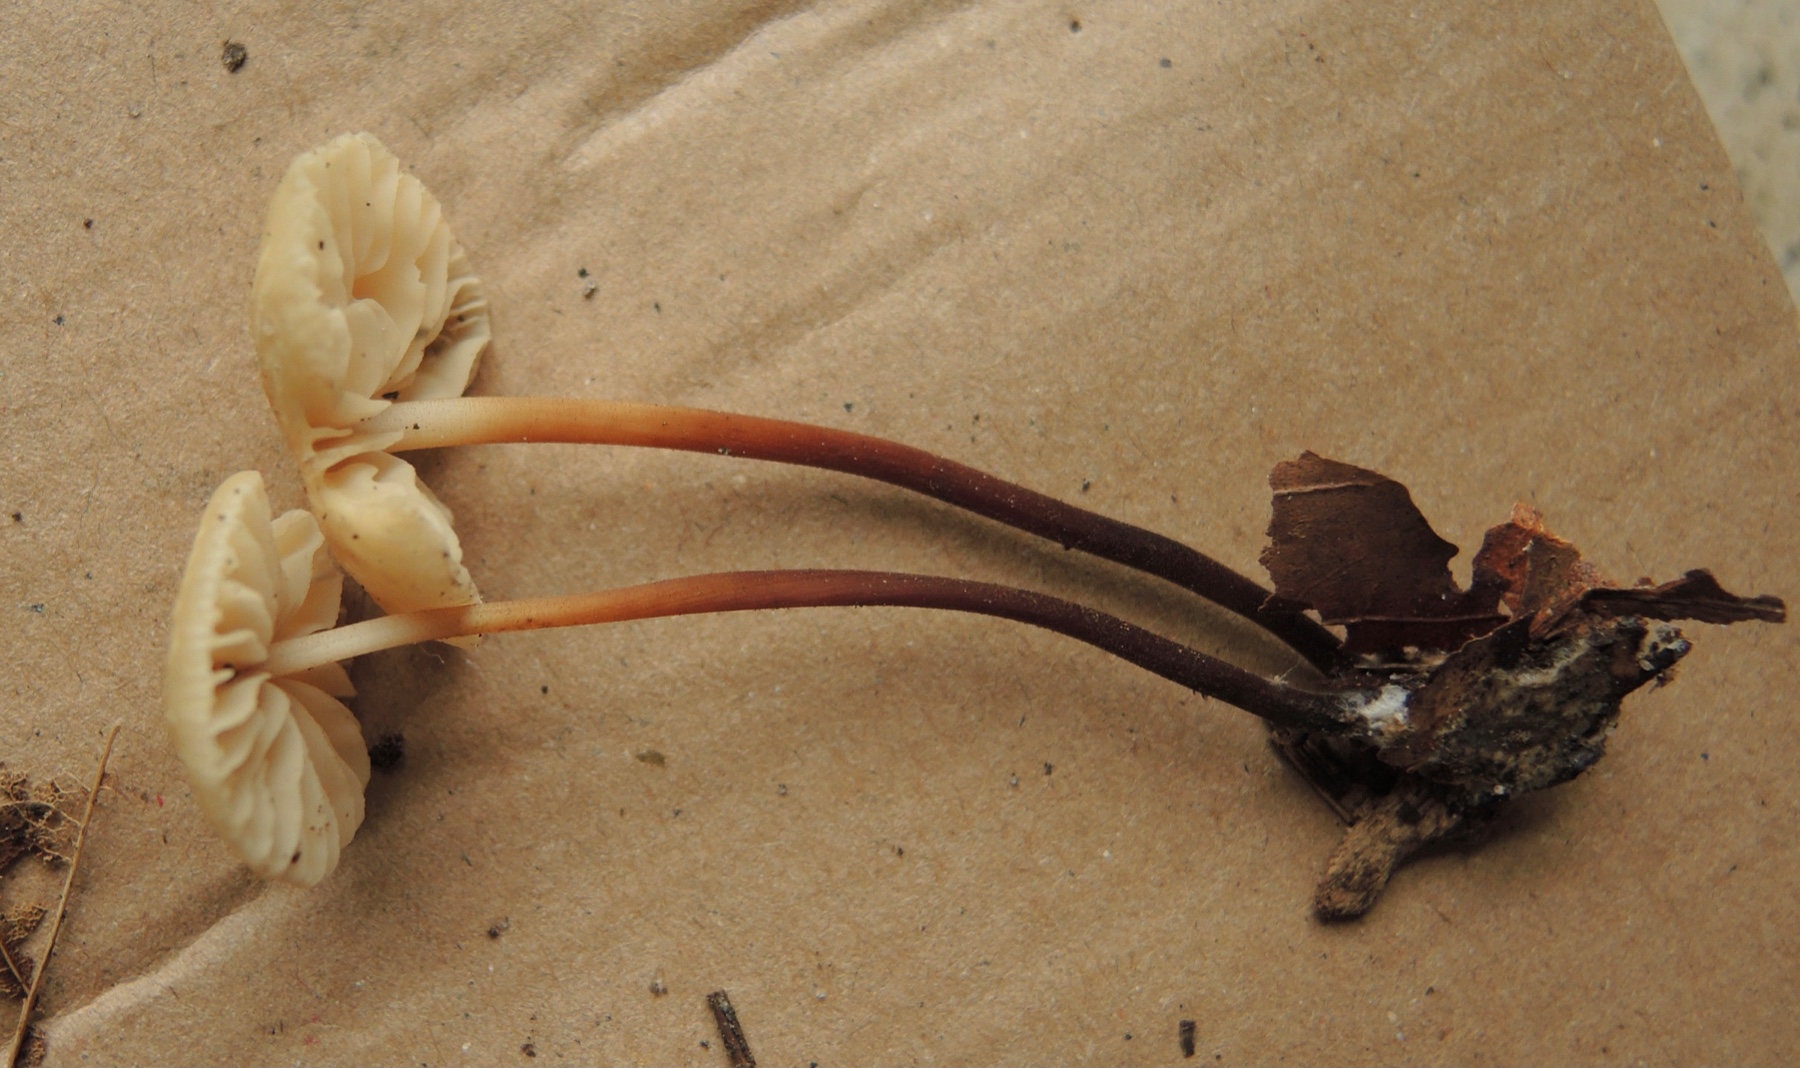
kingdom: Fungi
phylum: Basidiomycota
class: Agaricomycetes
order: Agaricales
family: Marasmiaceae
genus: Marasmius
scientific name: Marasmius torquescens
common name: filtfodet bruskhat
